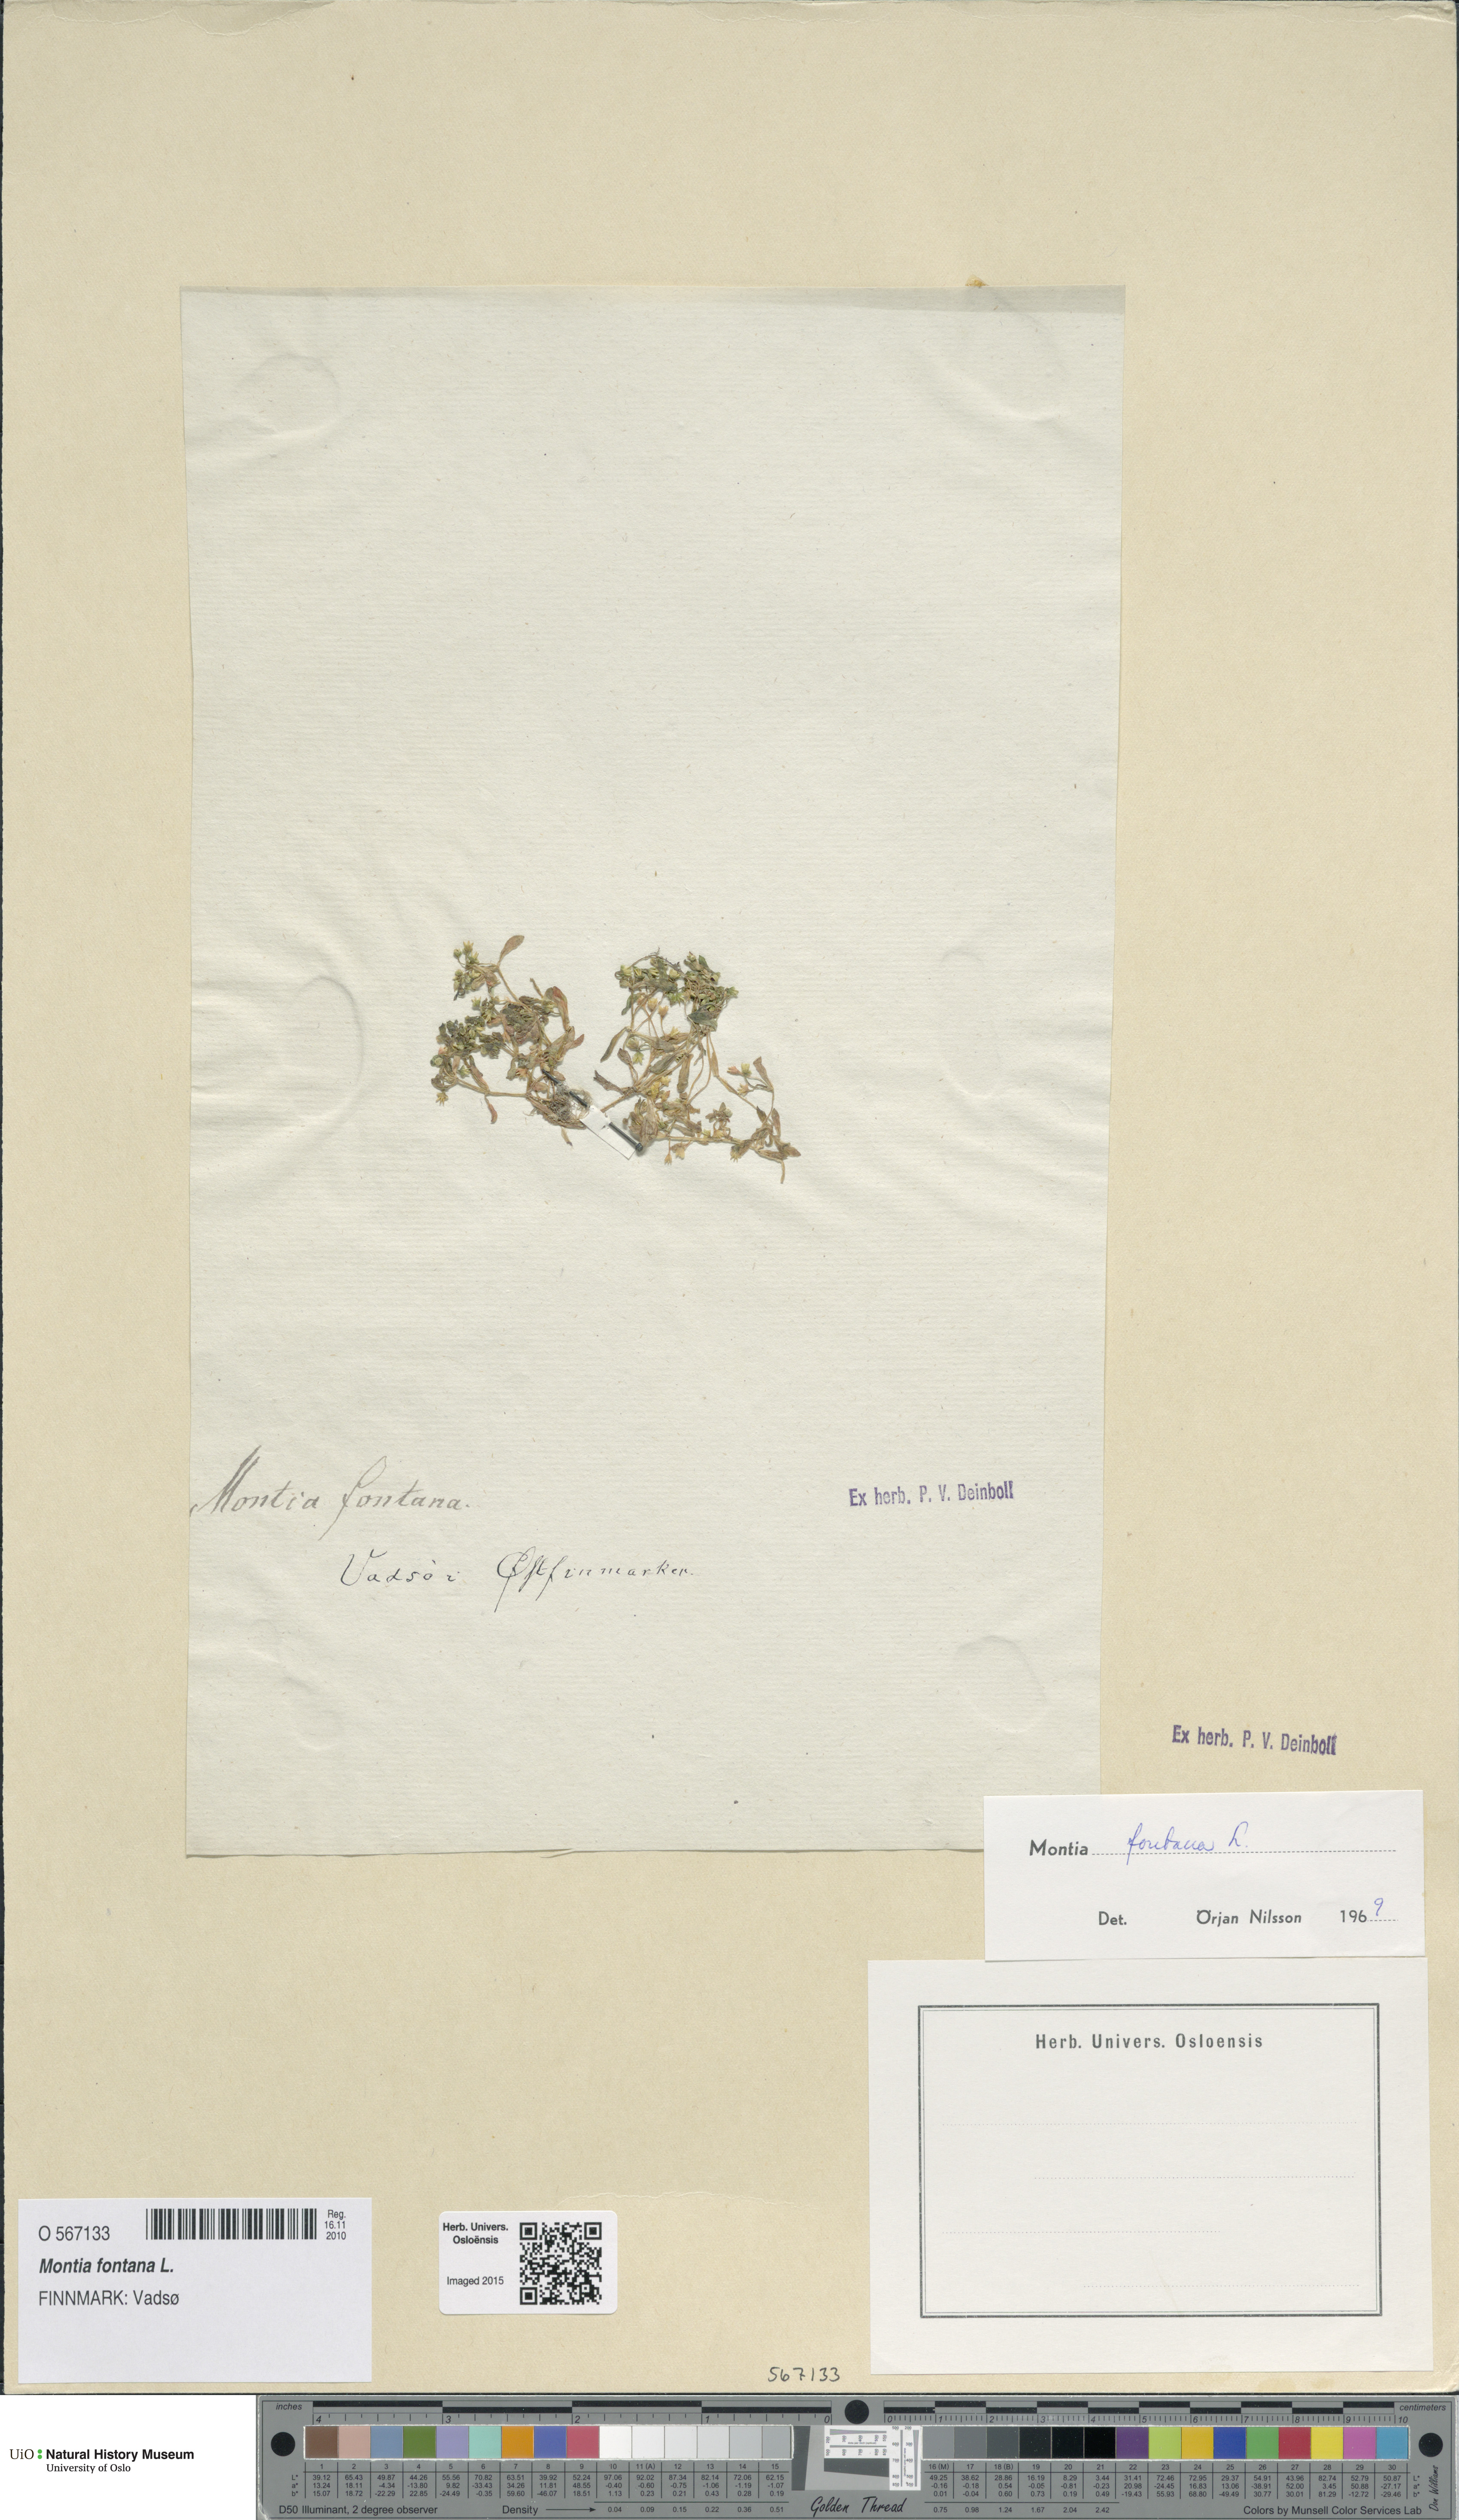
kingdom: Plantae
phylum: Tracheophyta
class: Magnoliopsida
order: Caryophyllales
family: Montiaceae
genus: Montia
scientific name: Montia fontana
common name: Blinks
